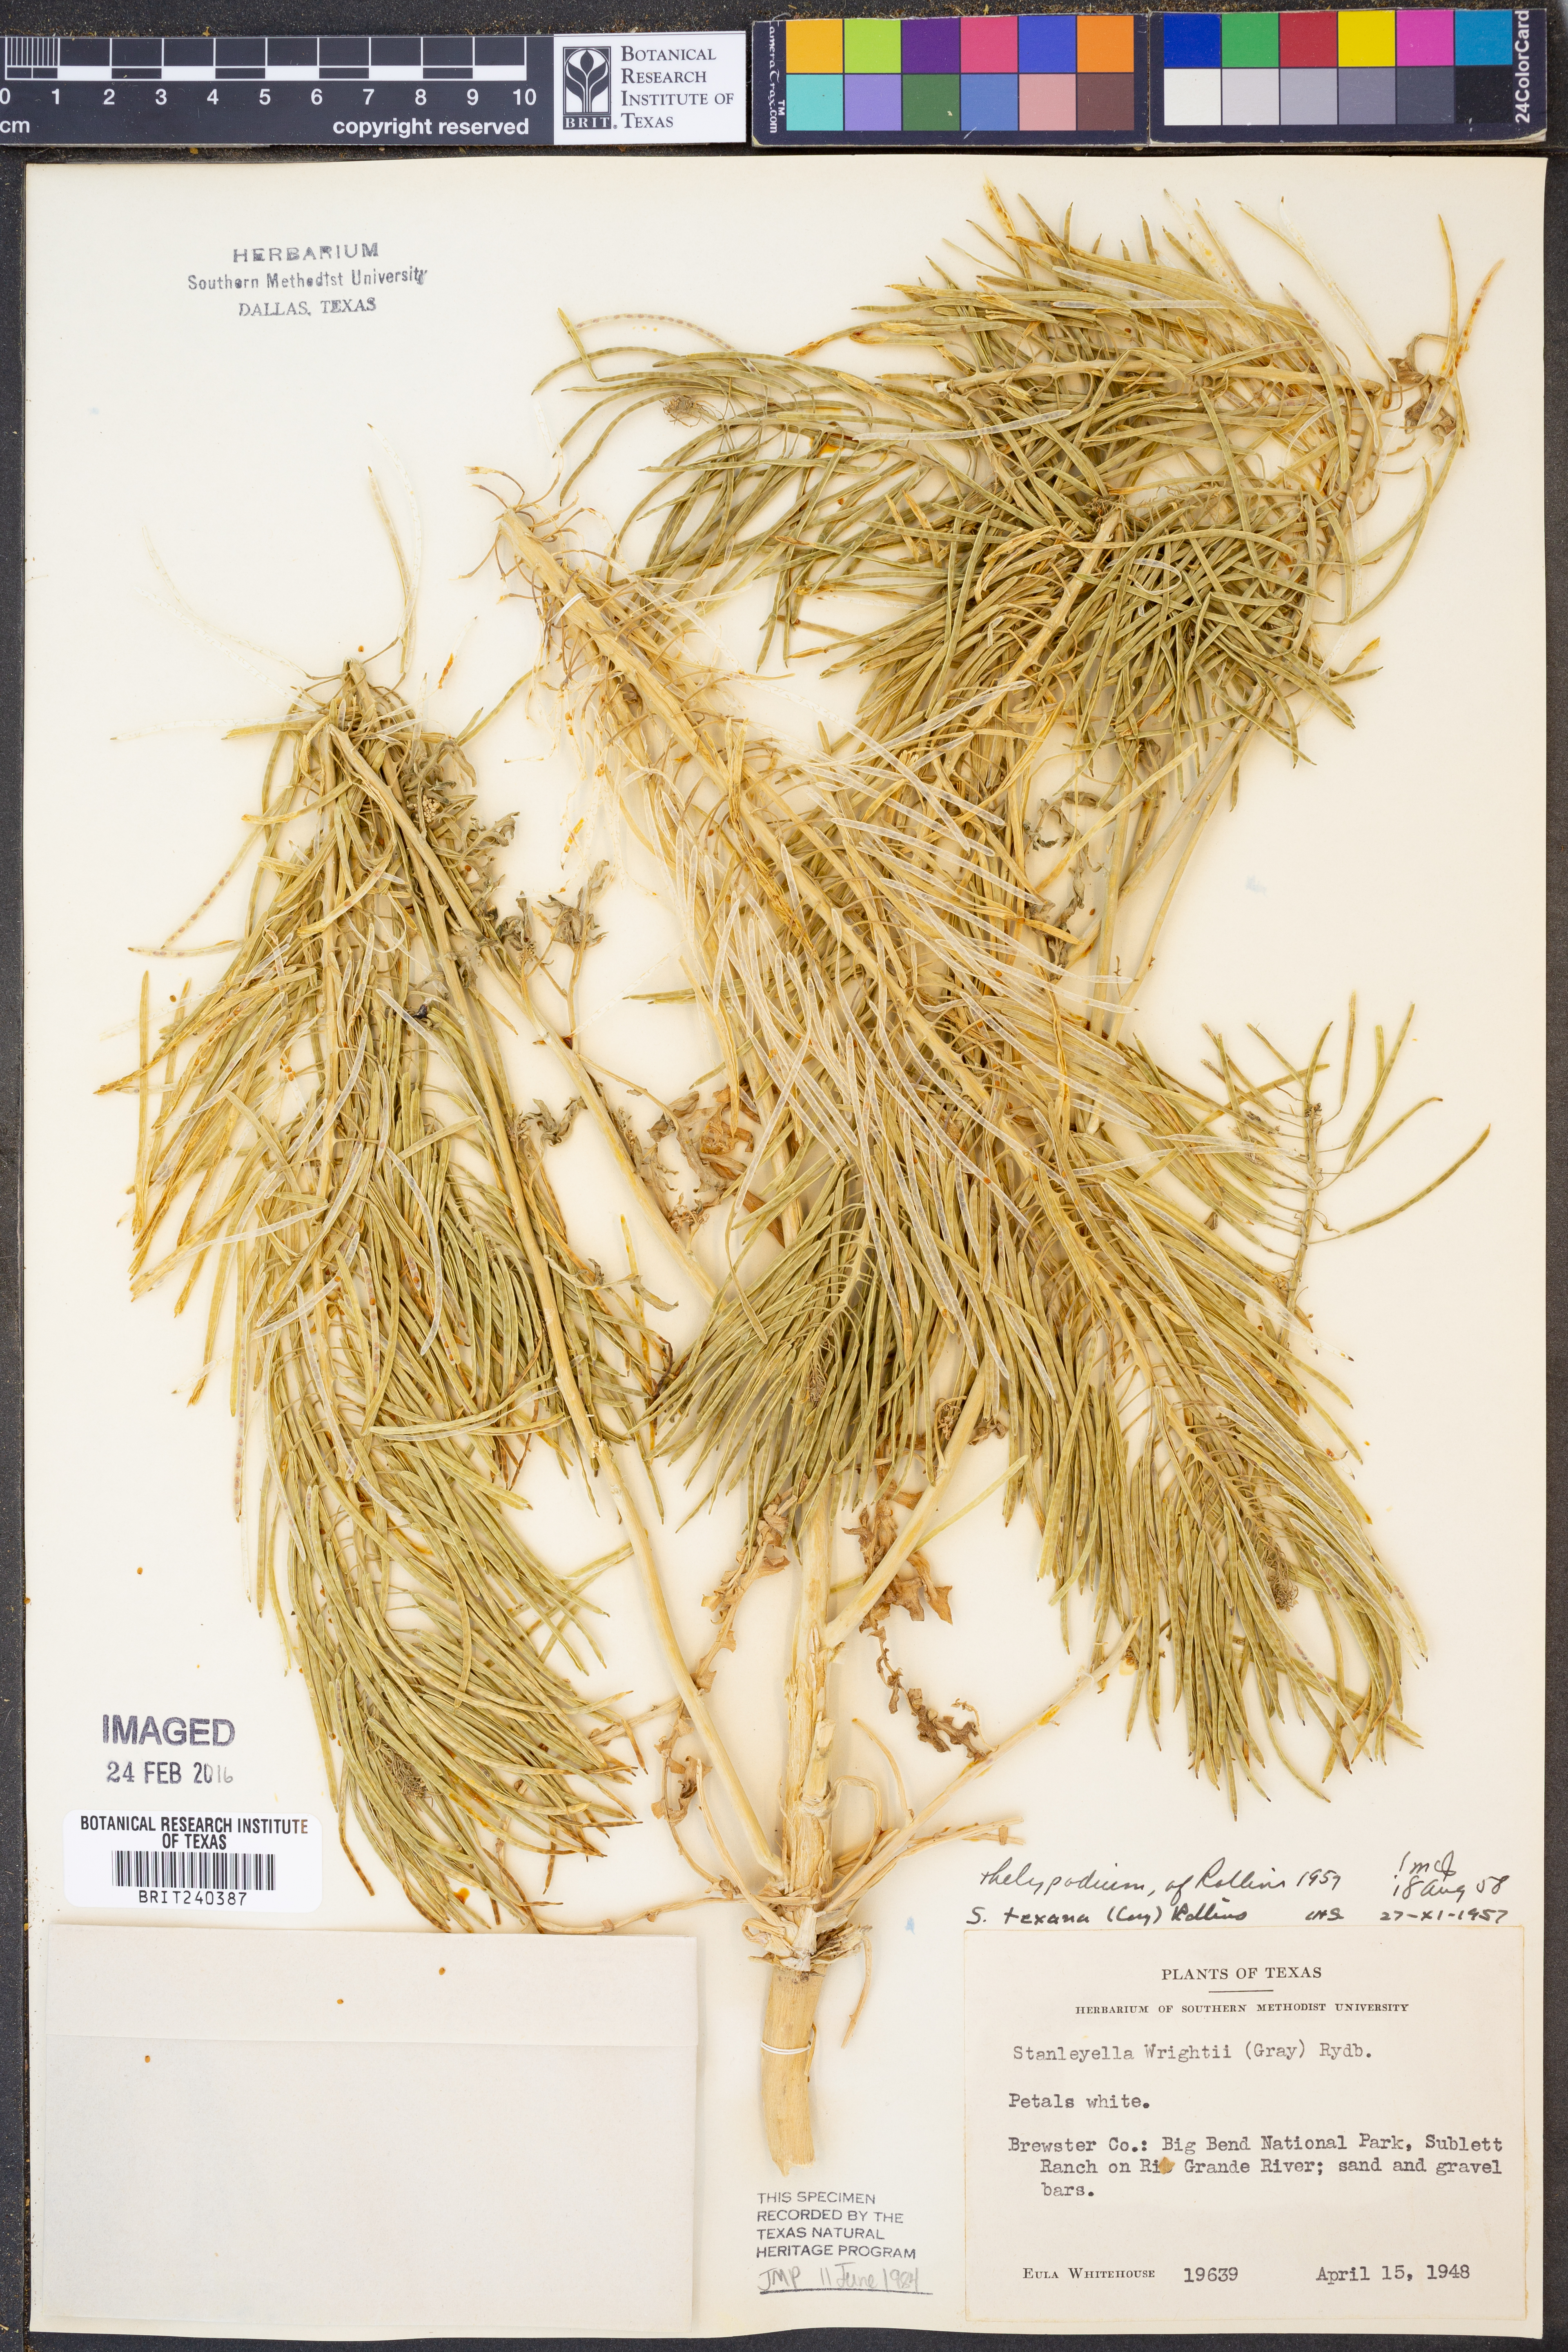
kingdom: Plantae
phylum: Tracheophyta
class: Magnoliopsida
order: Brassicales
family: Brassicaceae
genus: Thelypodium
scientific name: Thelypodium texanum
